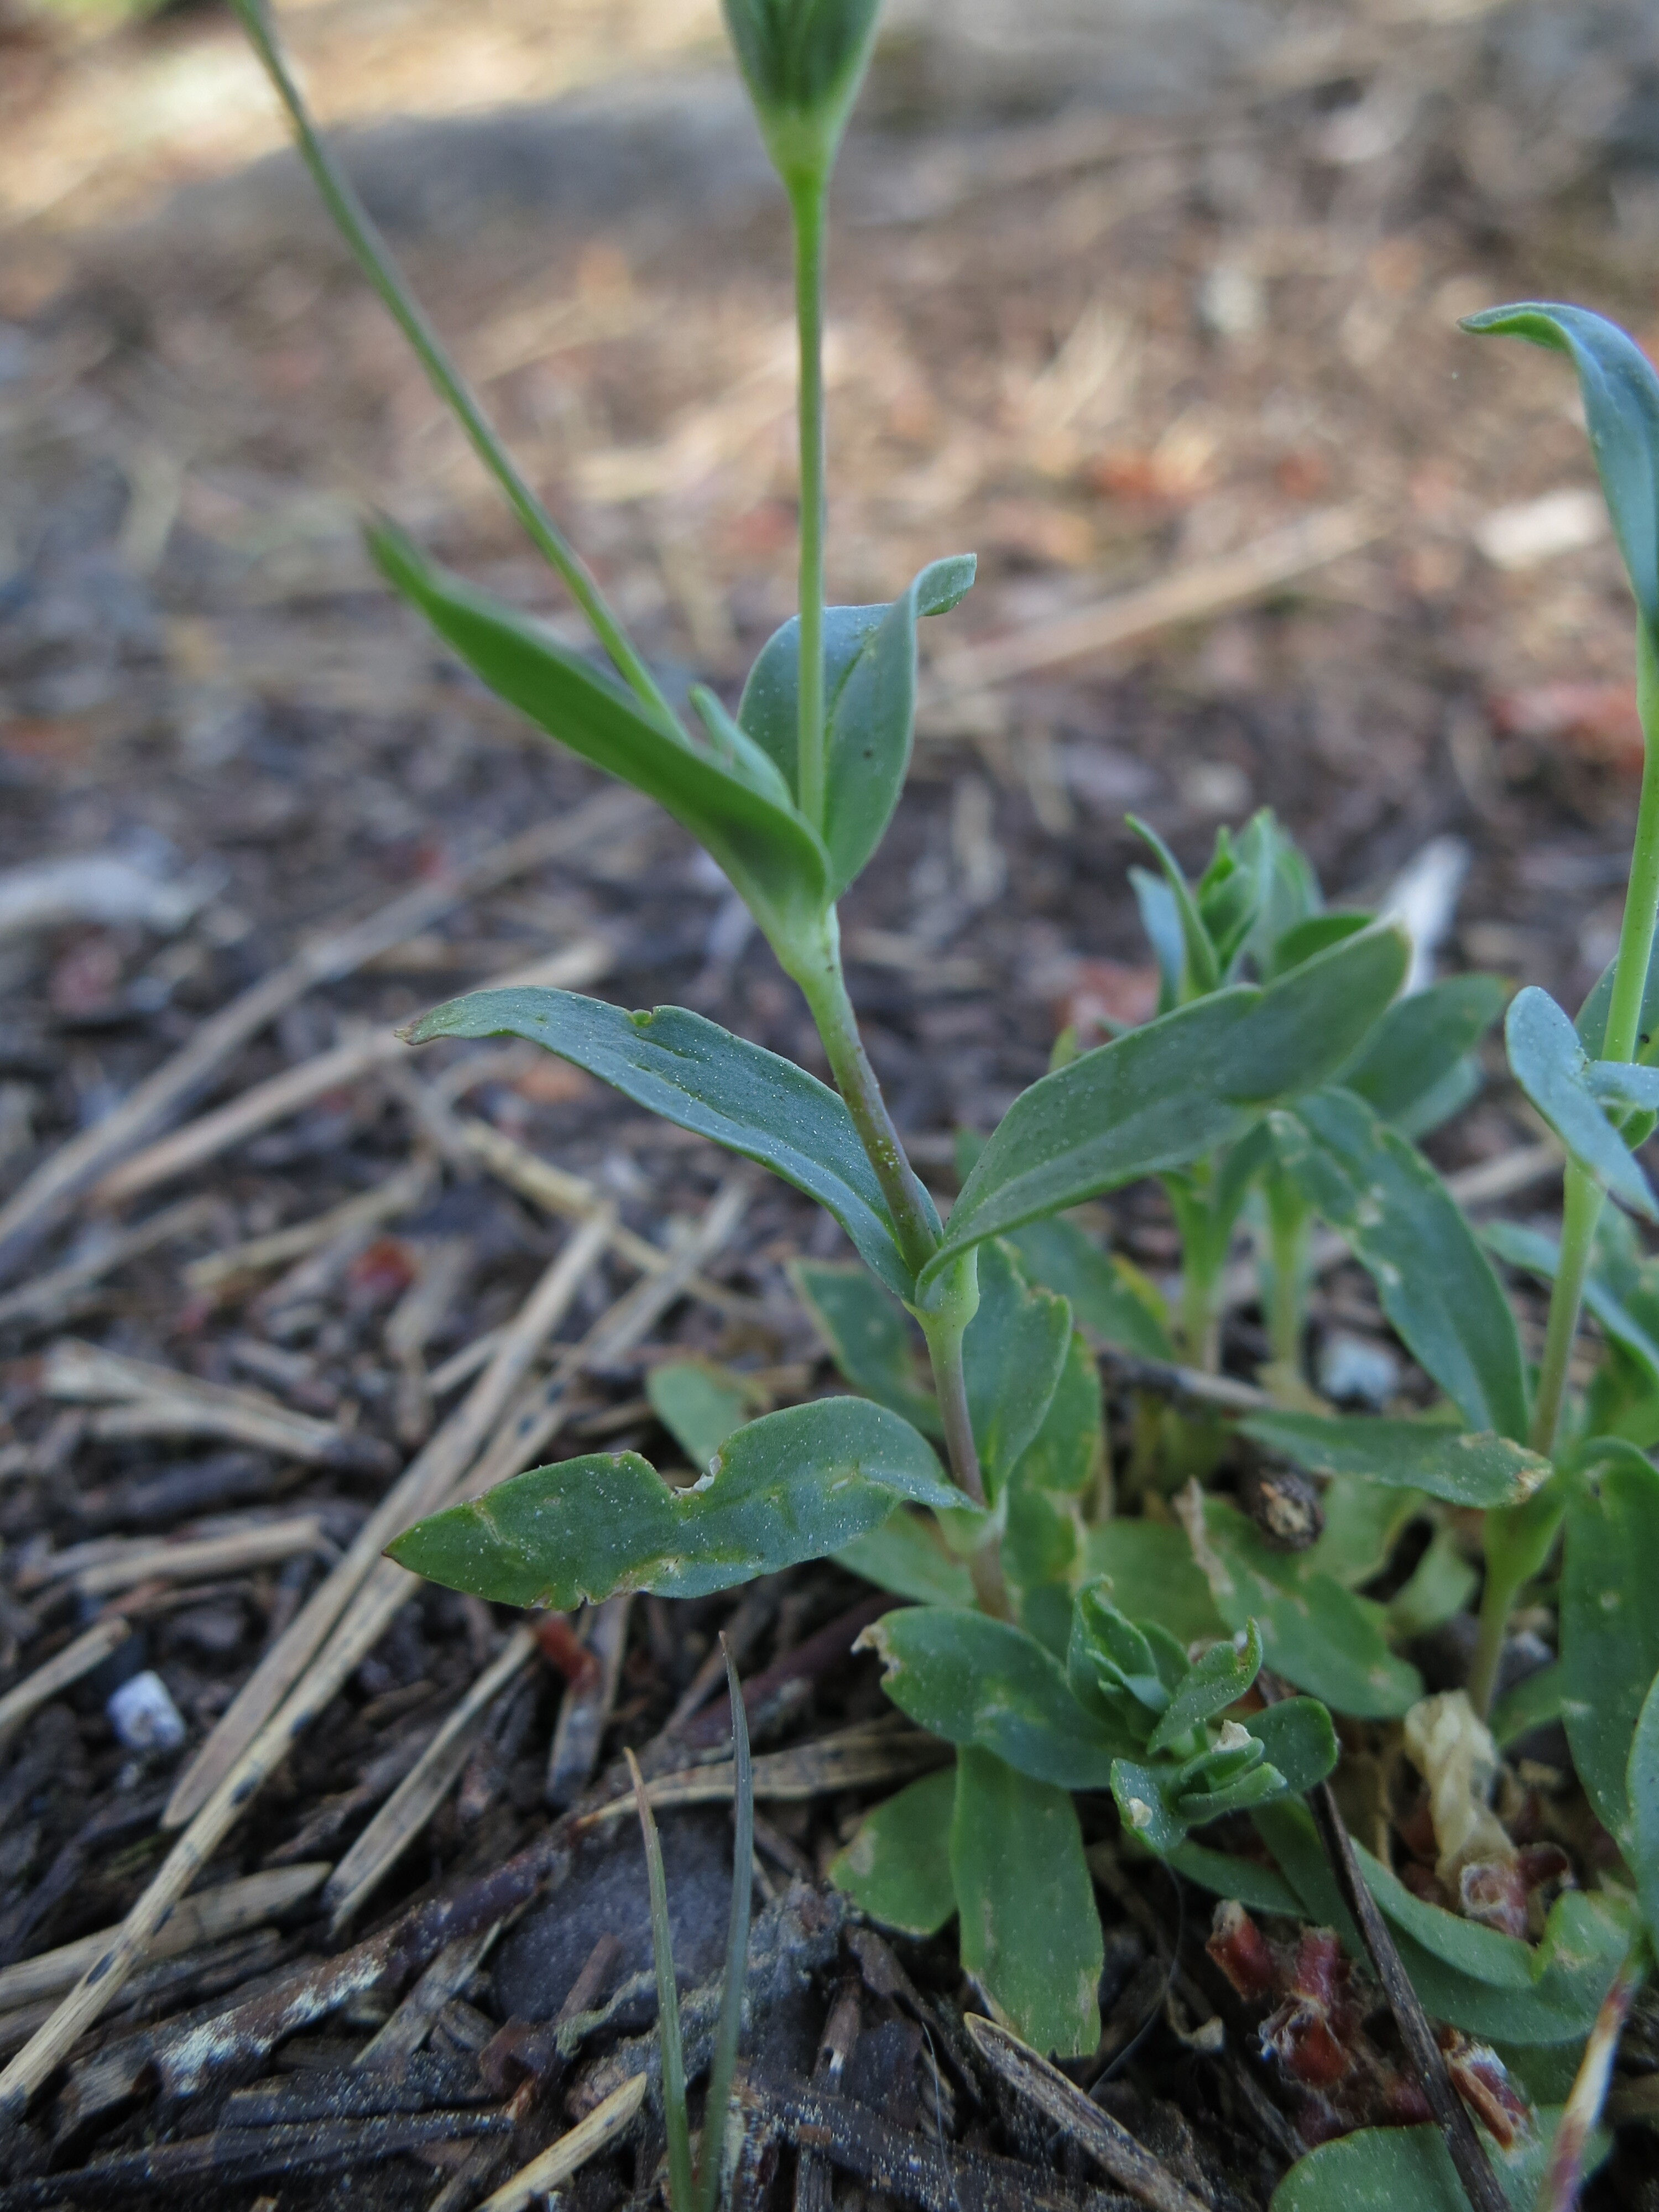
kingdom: Plantae
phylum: Tracheophyta
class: Magnoliopsida
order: Caryophyllales
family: Caryophyllaceae
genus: Atocion
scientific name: Atocion rupestre
